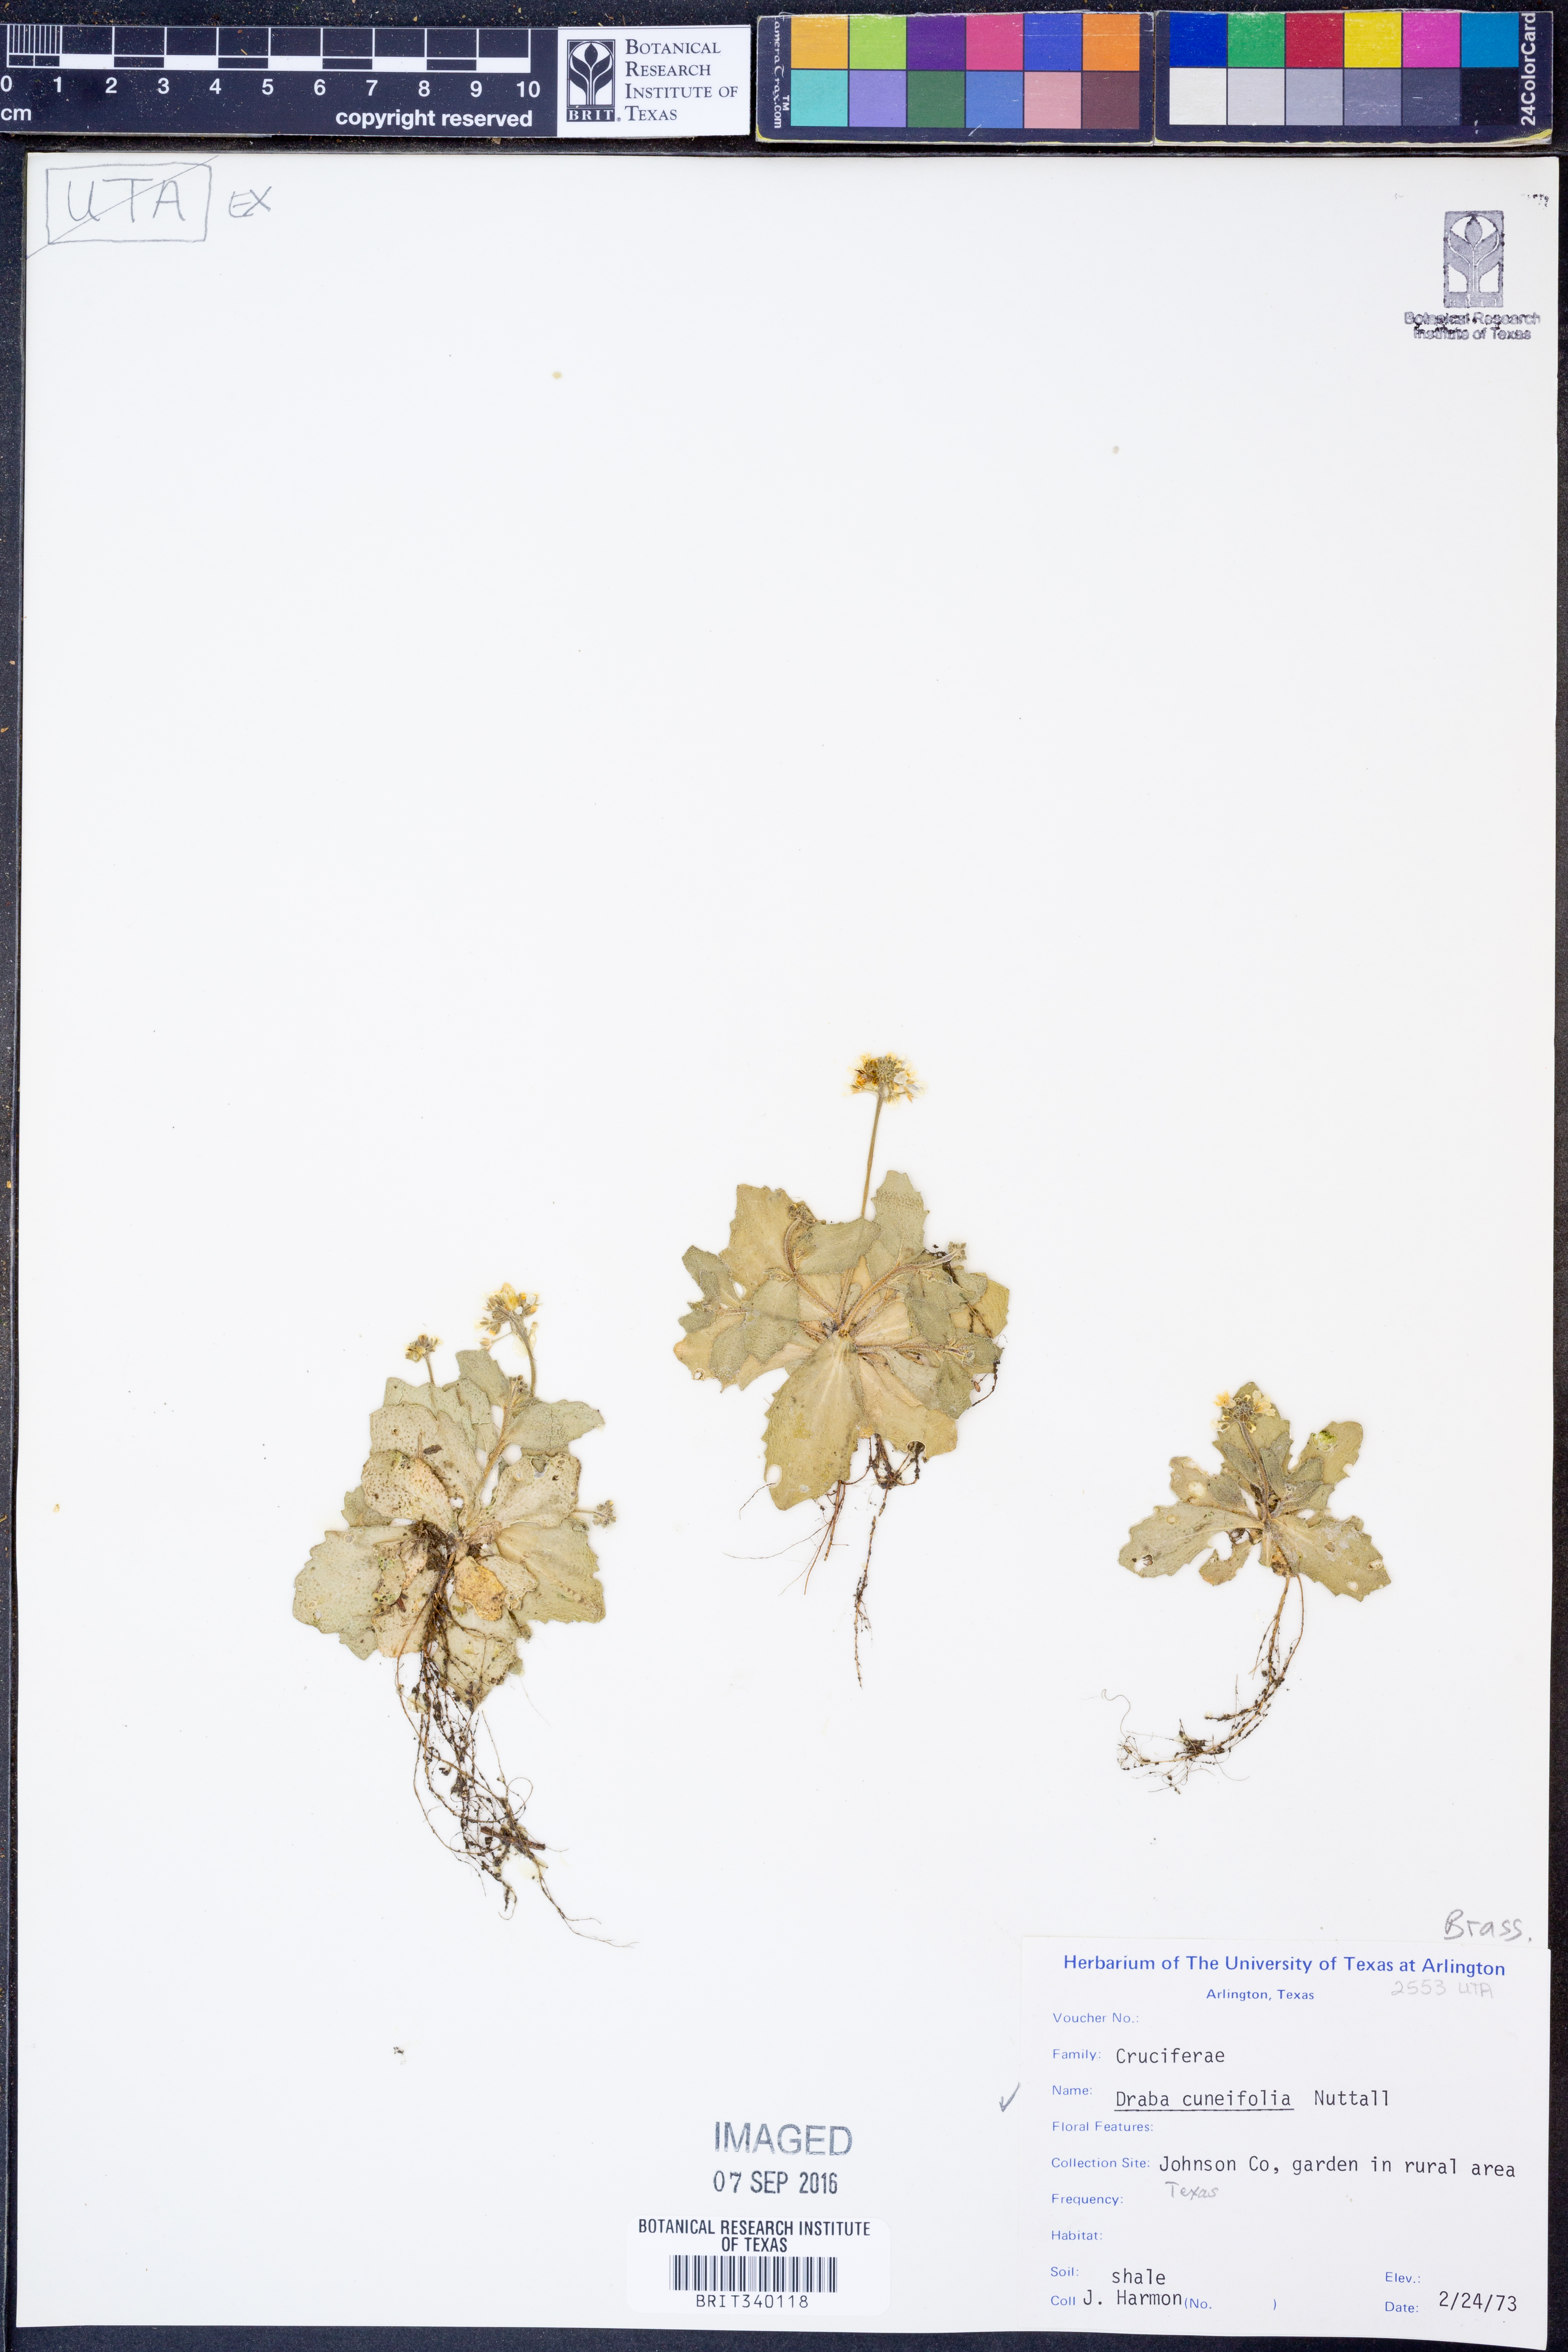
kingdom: Plantae
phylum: Tracheophyta
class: Magnoliopsida
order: Brassicales
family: Brassicaceae
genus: Tomostima
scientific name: Tomostima cuneifolia
